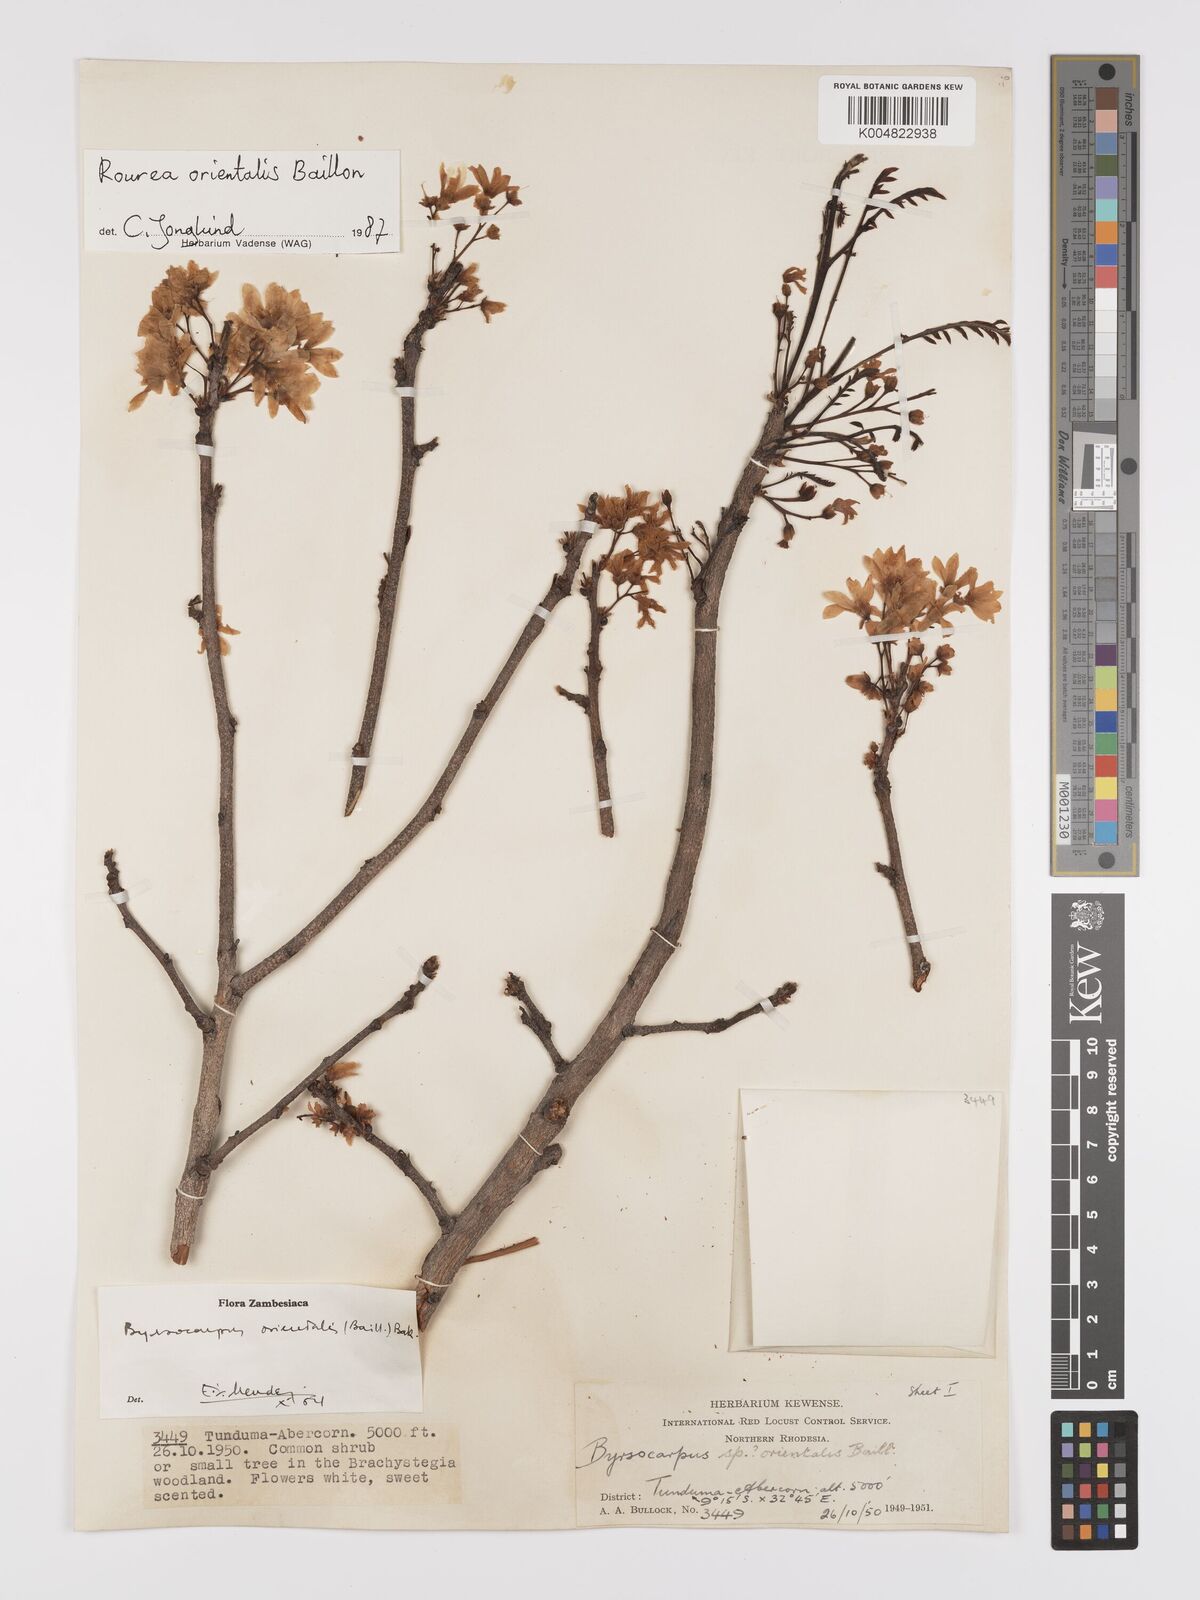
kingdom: Plantae
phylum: Tracheophyta
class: Magnoliopsida
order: Oxalidales
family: Connaraceae
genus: Rourea
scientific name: Rourea orientalis
